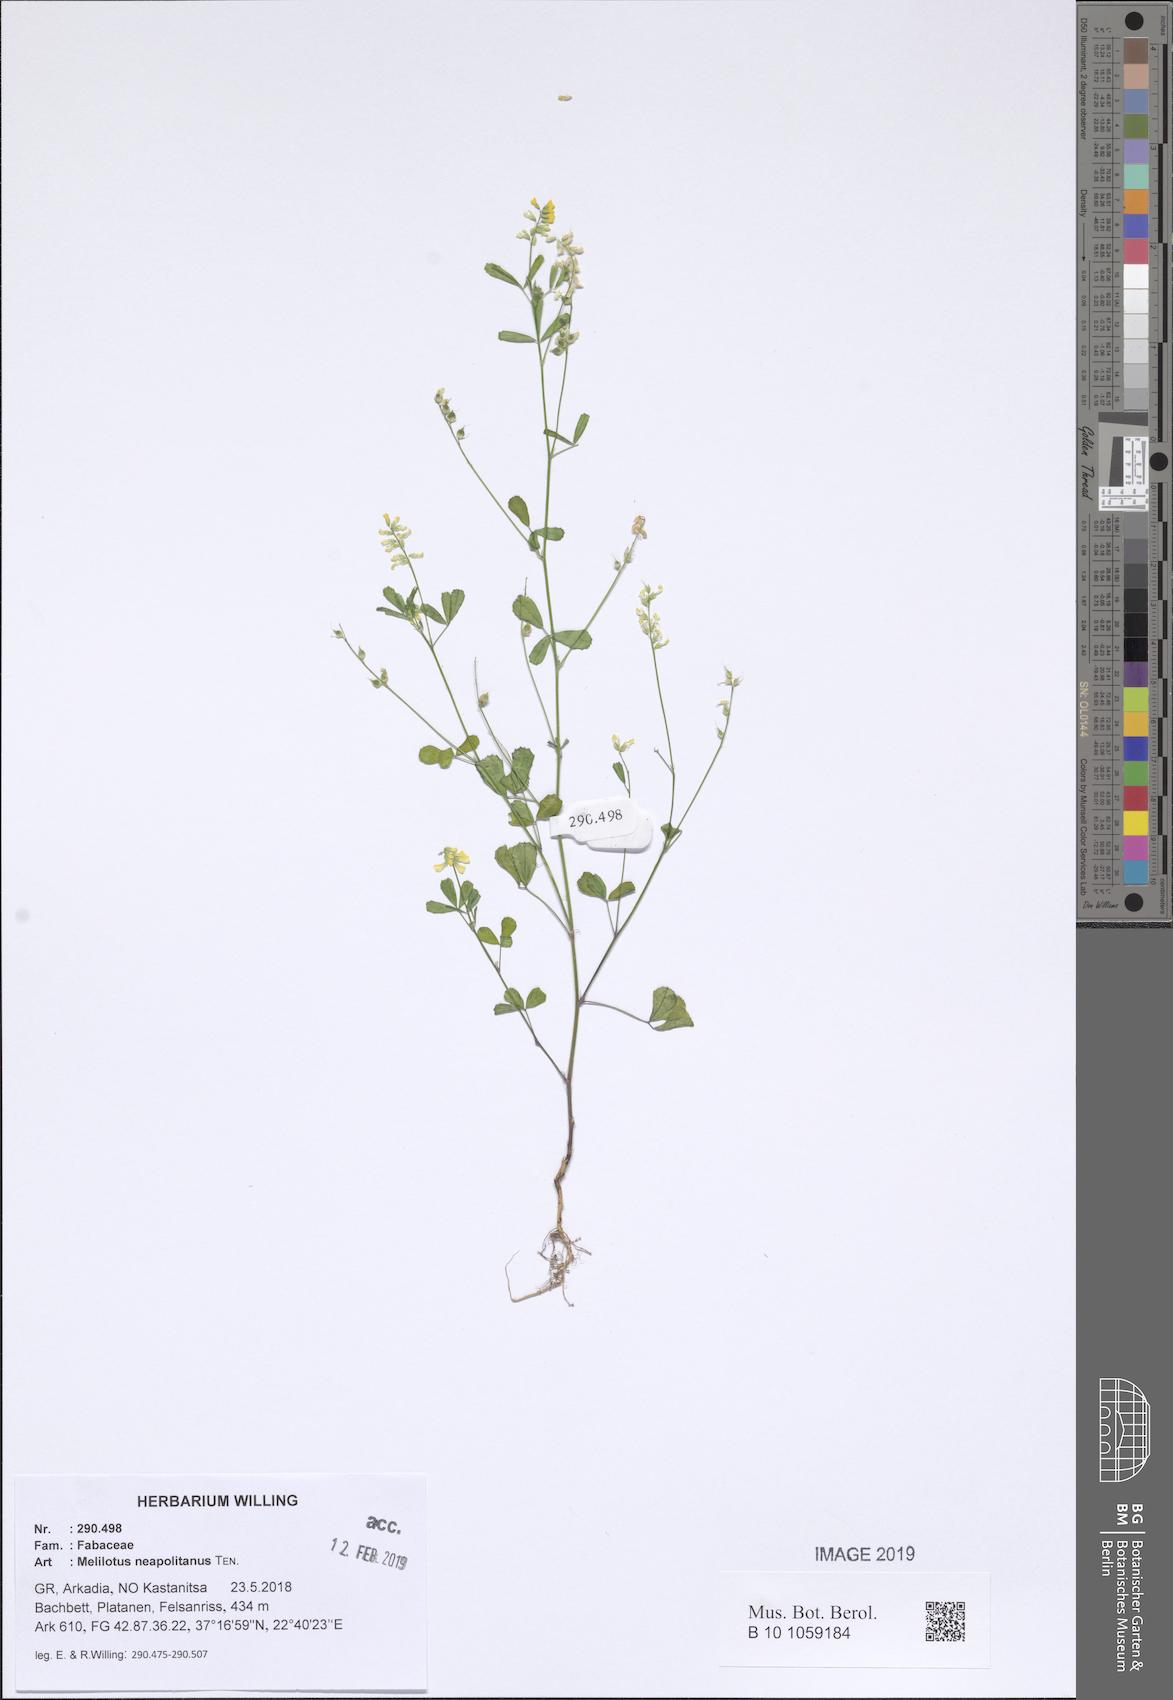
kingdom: Plantae
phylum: Tracheophyta
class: Magnoliopsida
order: Fabales
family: Fabaceae
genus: Melilotus
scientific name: Melilotus neapolitanus
